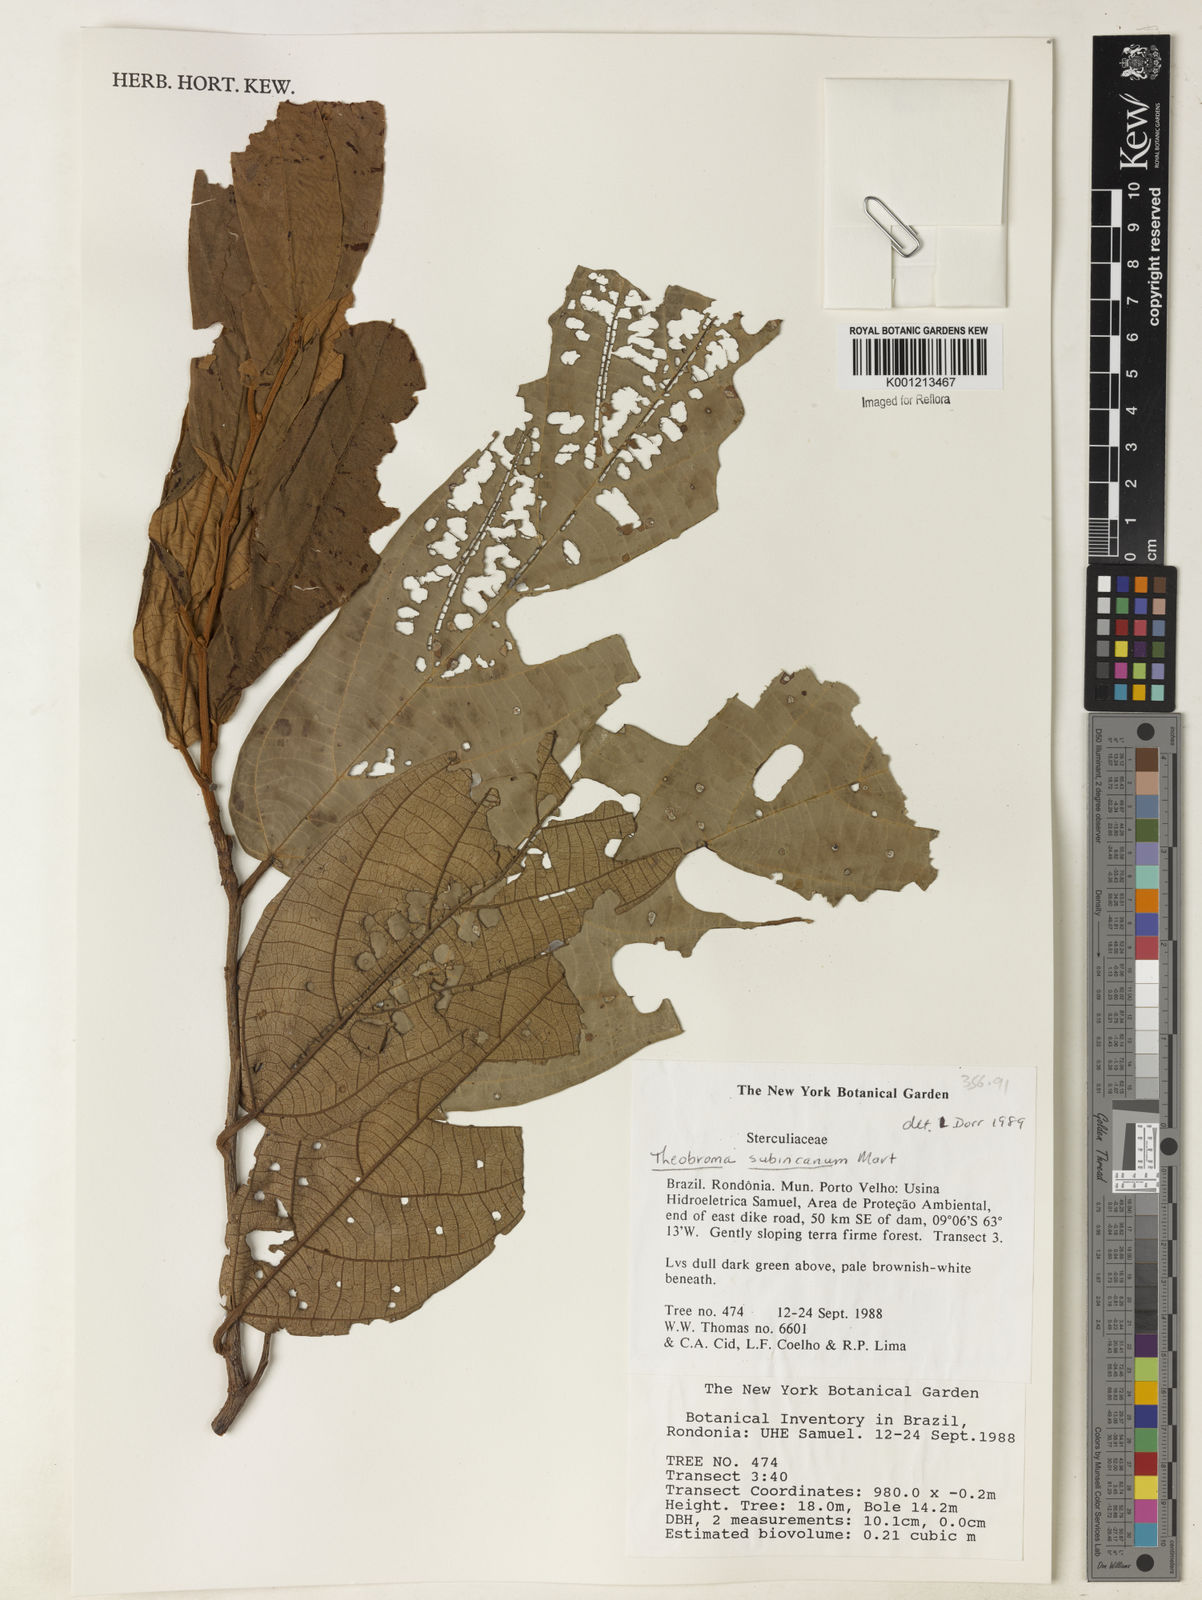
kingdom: Plantae
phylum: Tracheophyta
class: Magnoliopsida
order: Malvales
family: Malvaceae
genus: Theobroma
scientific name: Theobroma subincanum
